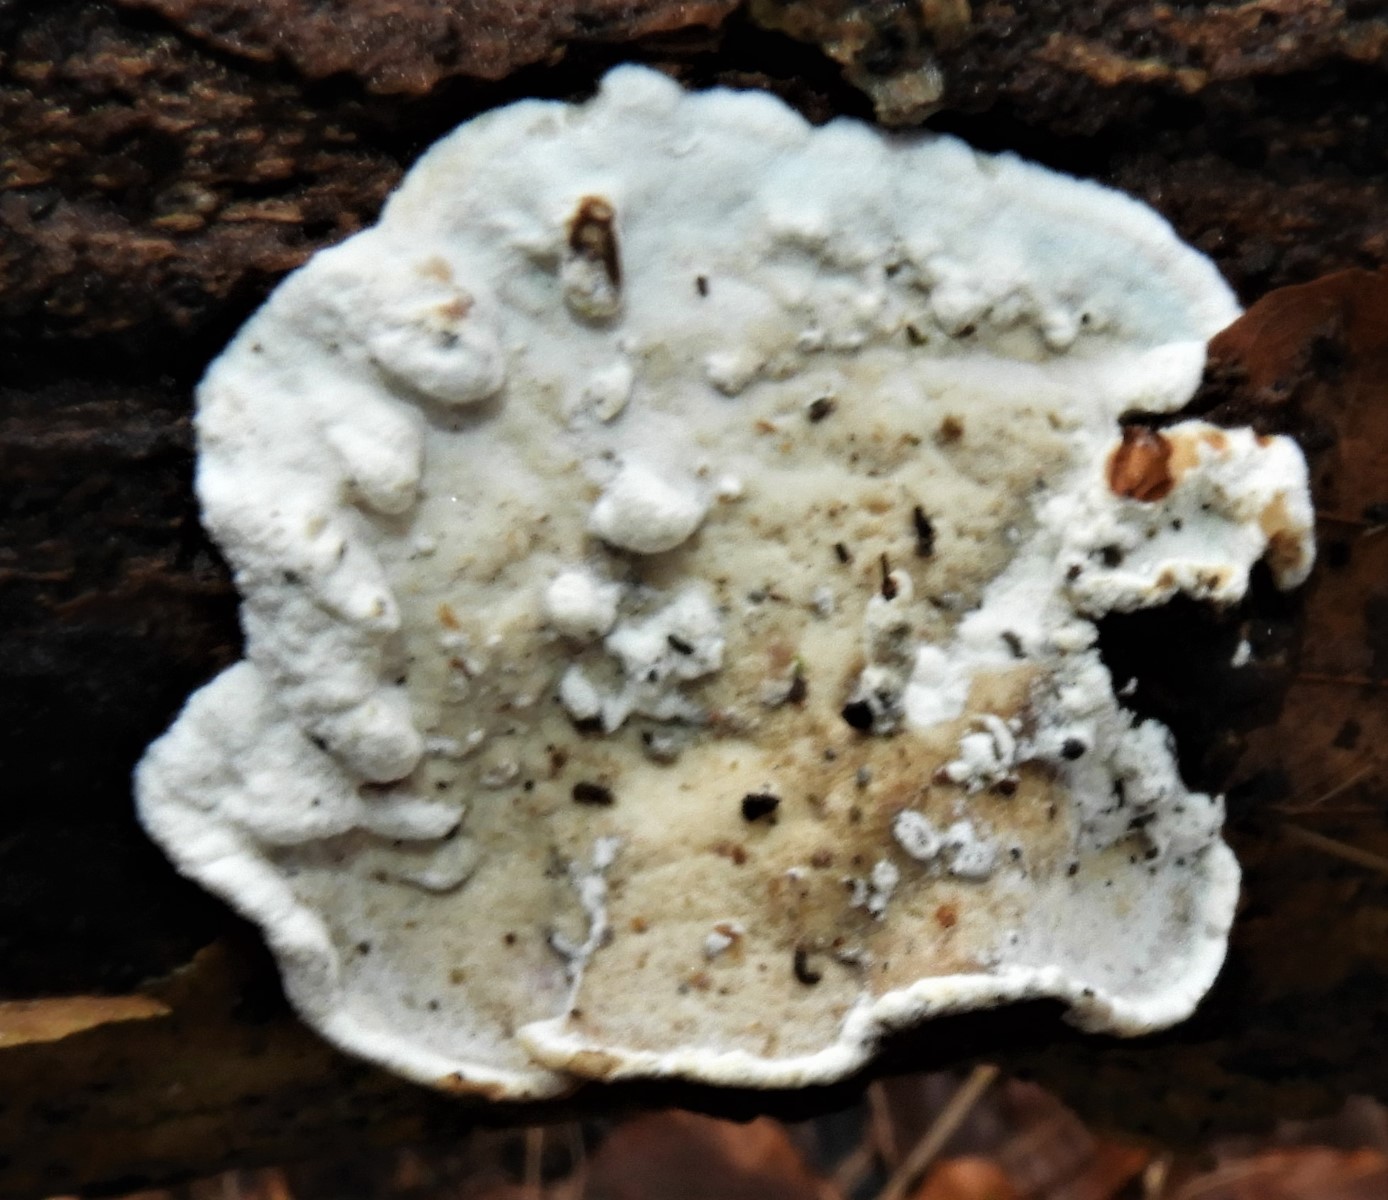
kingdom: Fungi
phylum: Basidiomycota
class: Agaricomycetes
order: Polyporales
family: Incrustoporiaceae
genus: Skeletocutis
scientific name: Skeletocutis nemoralis
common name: stor krystalporesvamp
